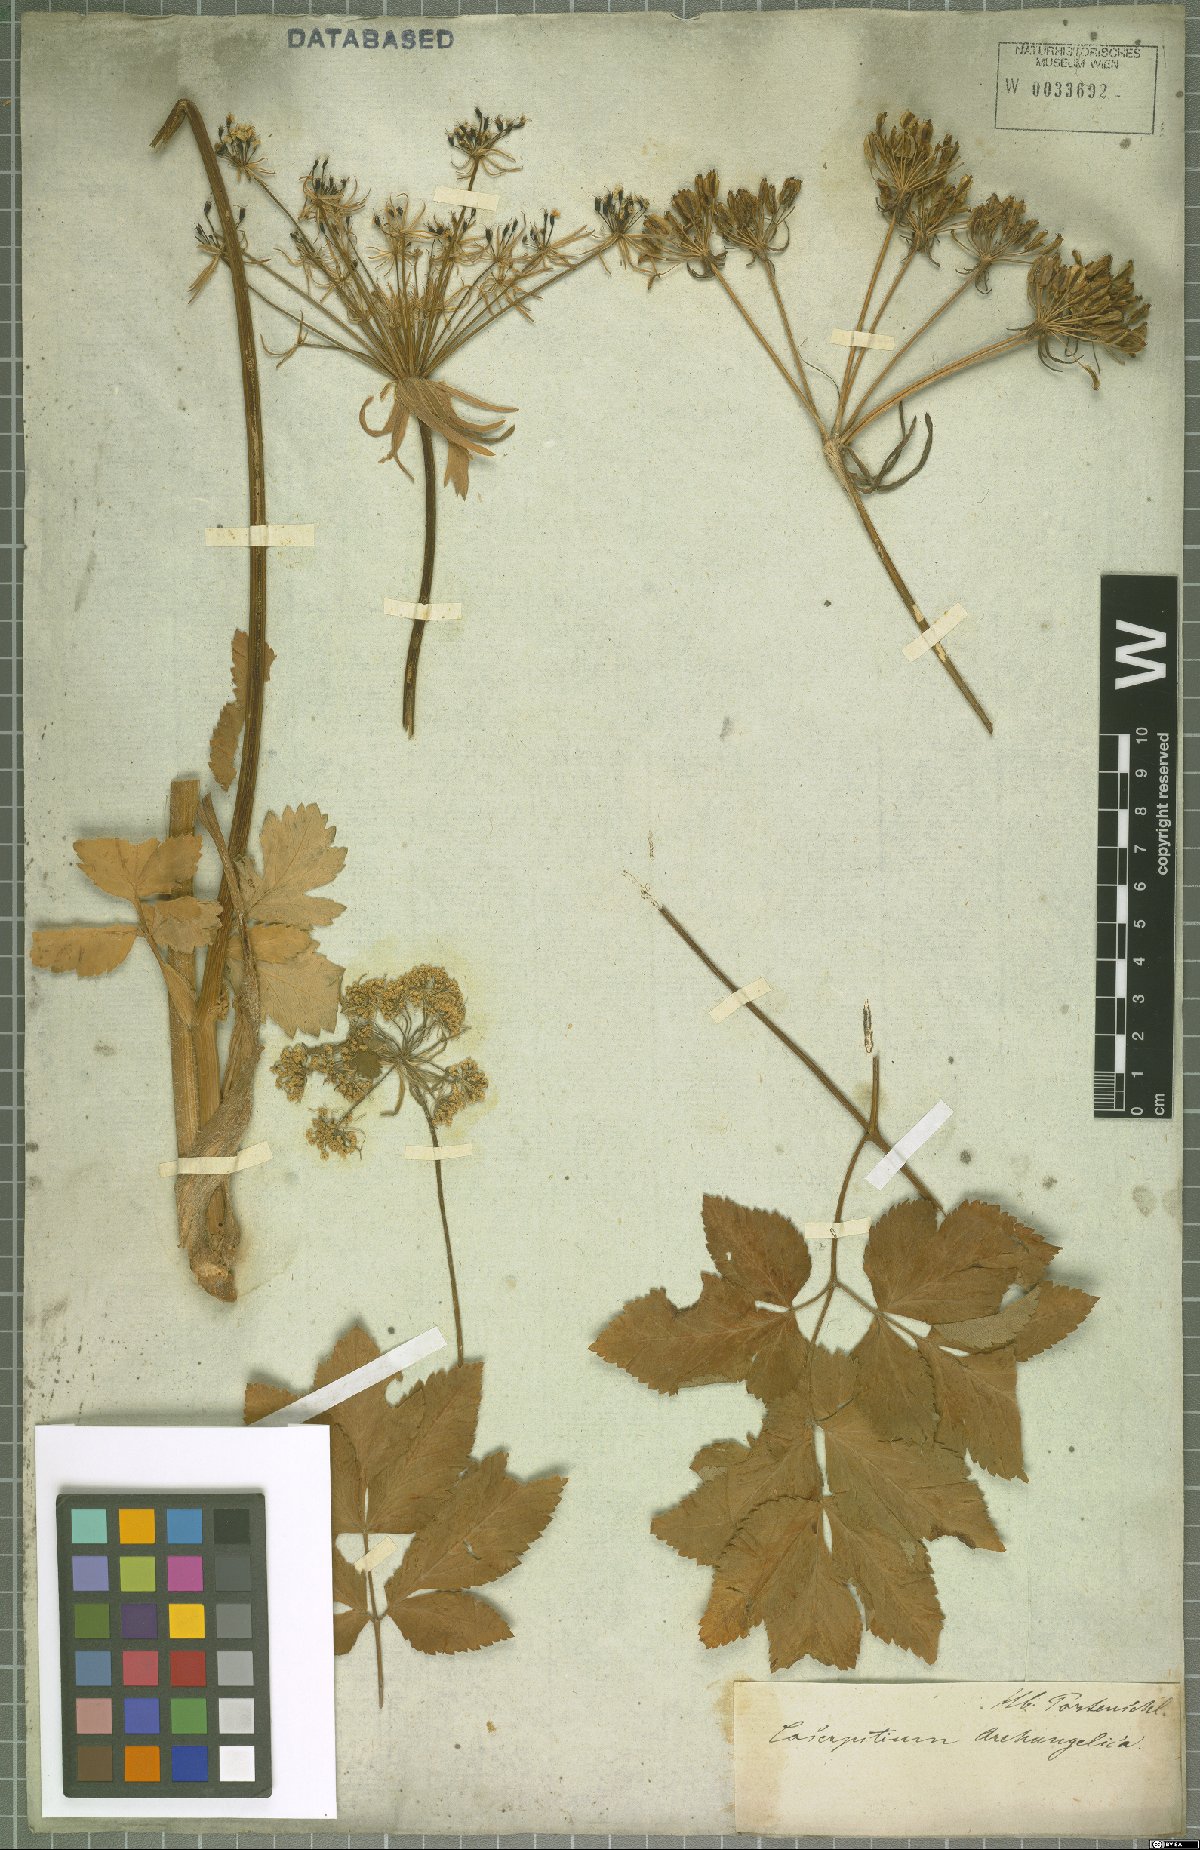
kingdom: Plantae
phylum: Tracheophyta
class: Magnoliopsida
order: Apiales
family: Apiaceae
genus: Laser
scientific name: Laser archangelica
